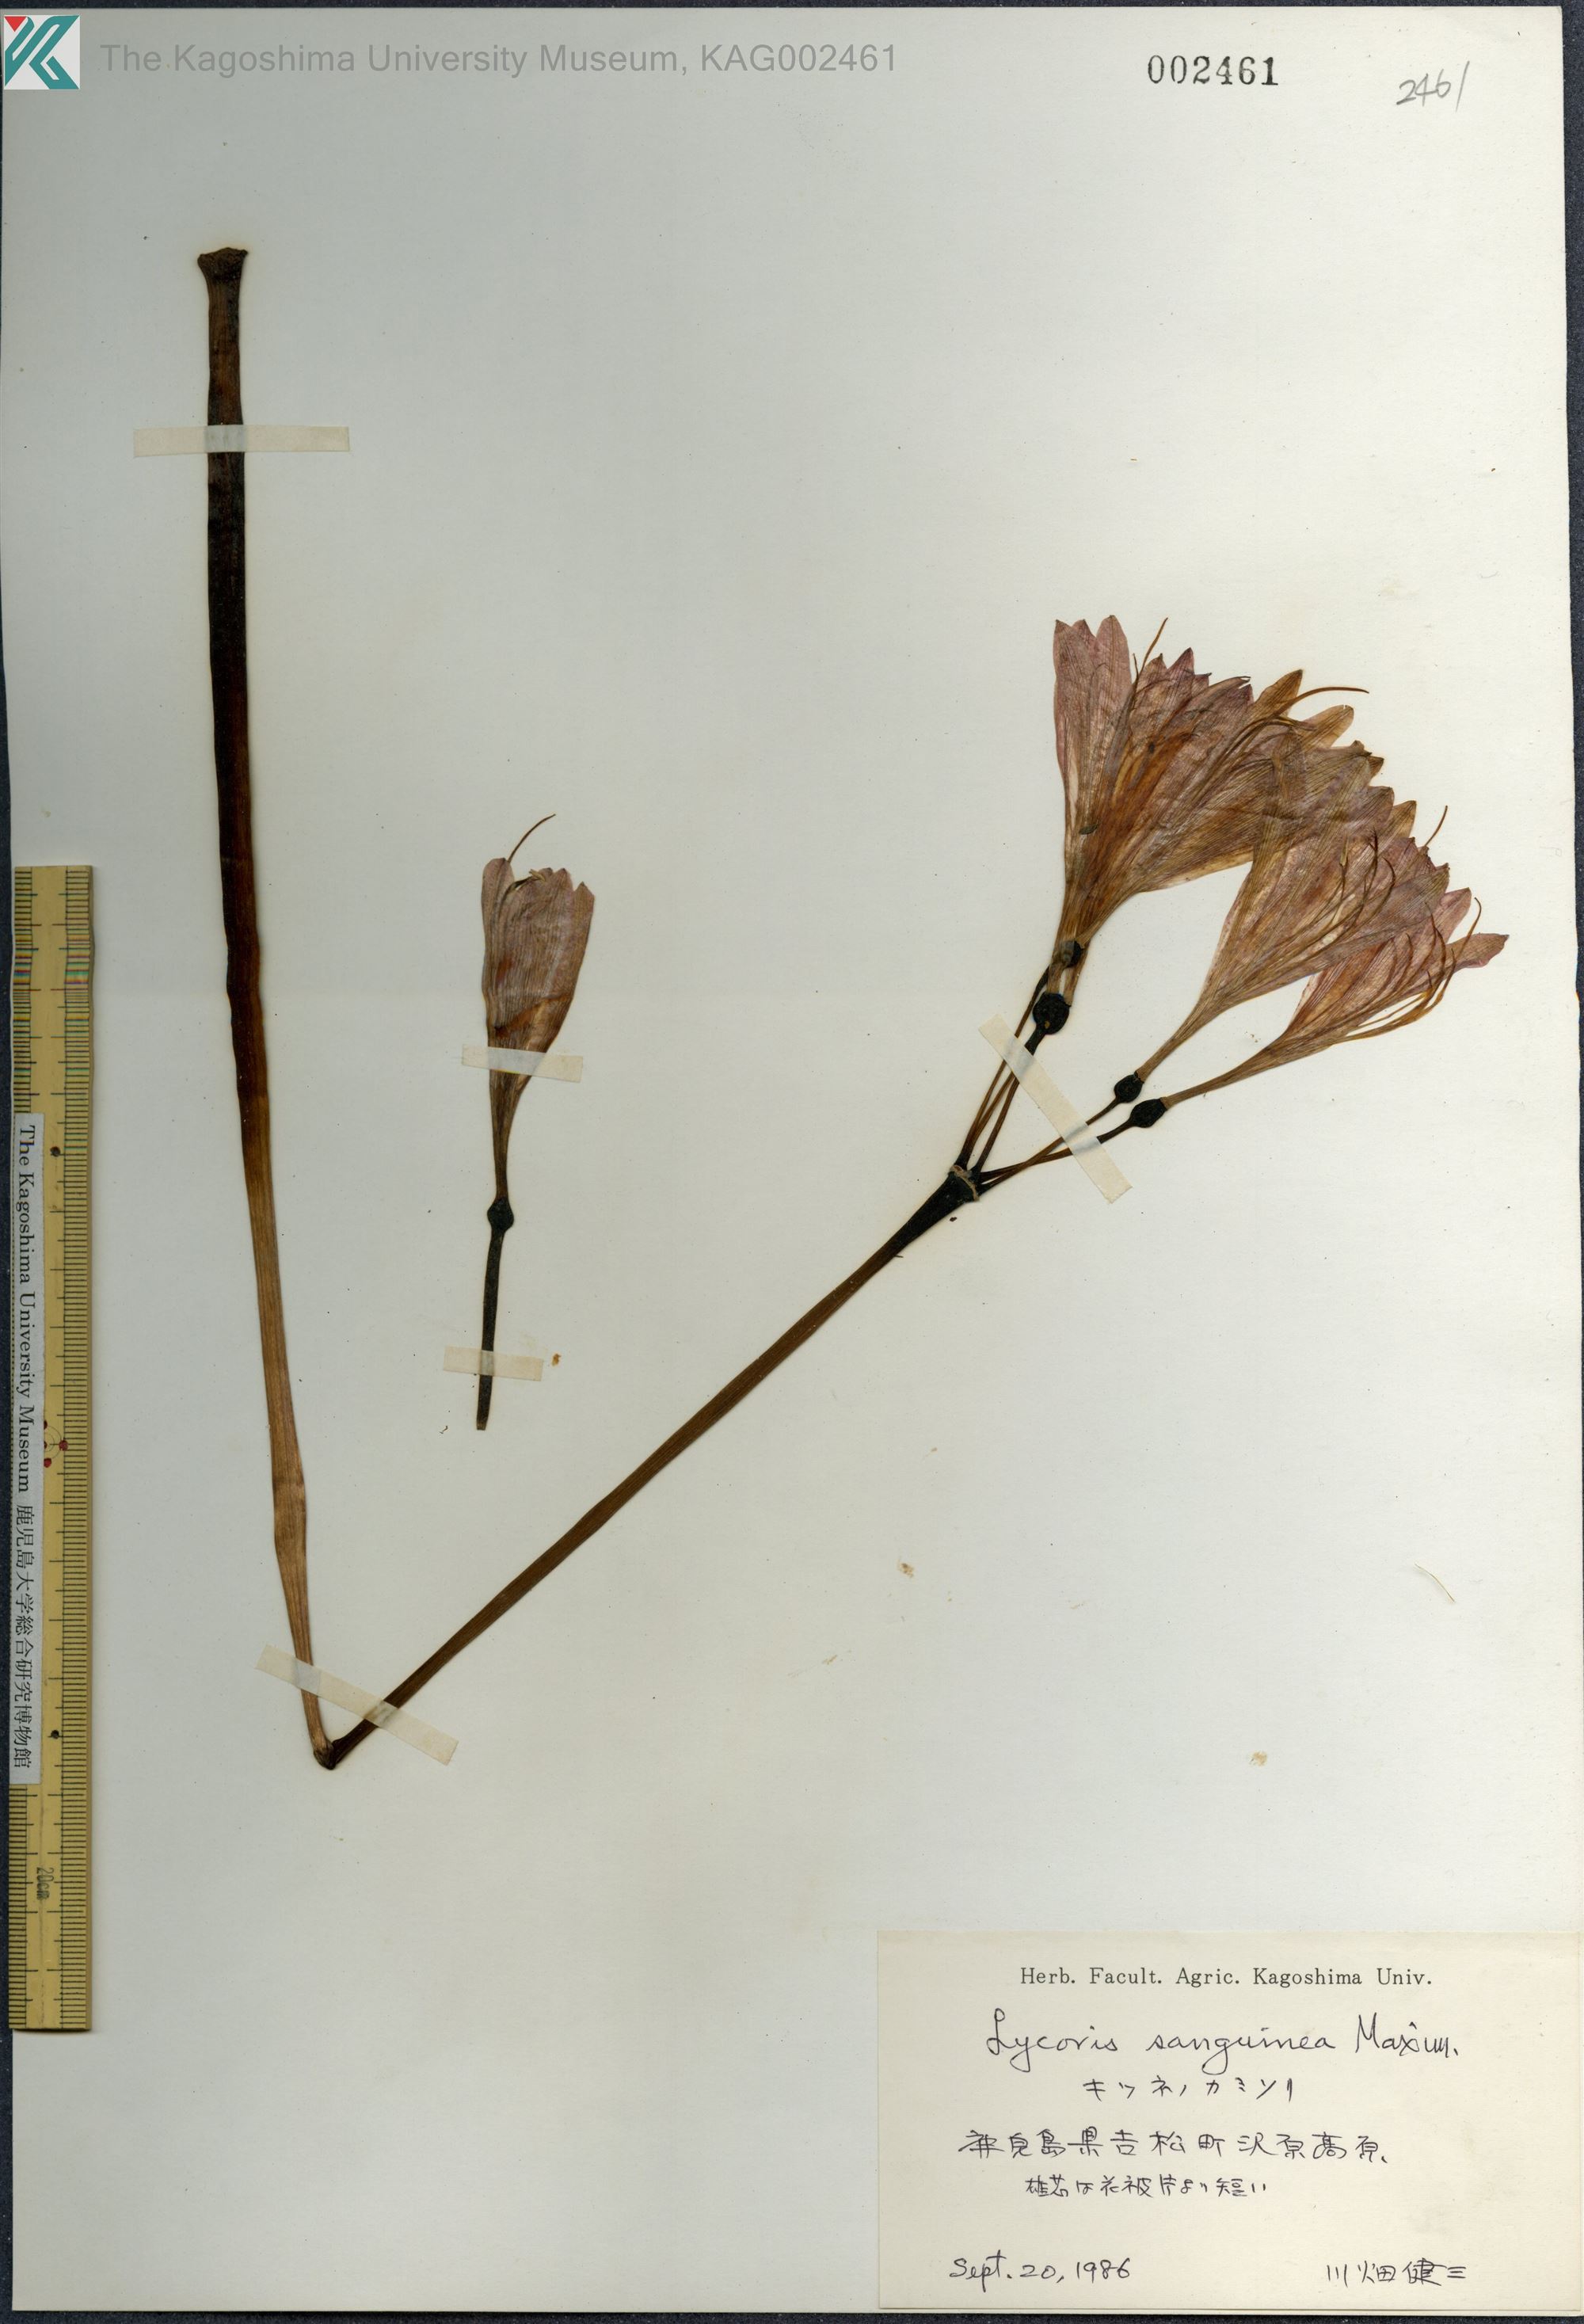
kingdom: Plantae
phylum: Tracheophyta
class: Liliopsida
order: Asparagales
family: Amaryllidaceae
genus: Lycoris
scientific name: Lycoris sanguinea
